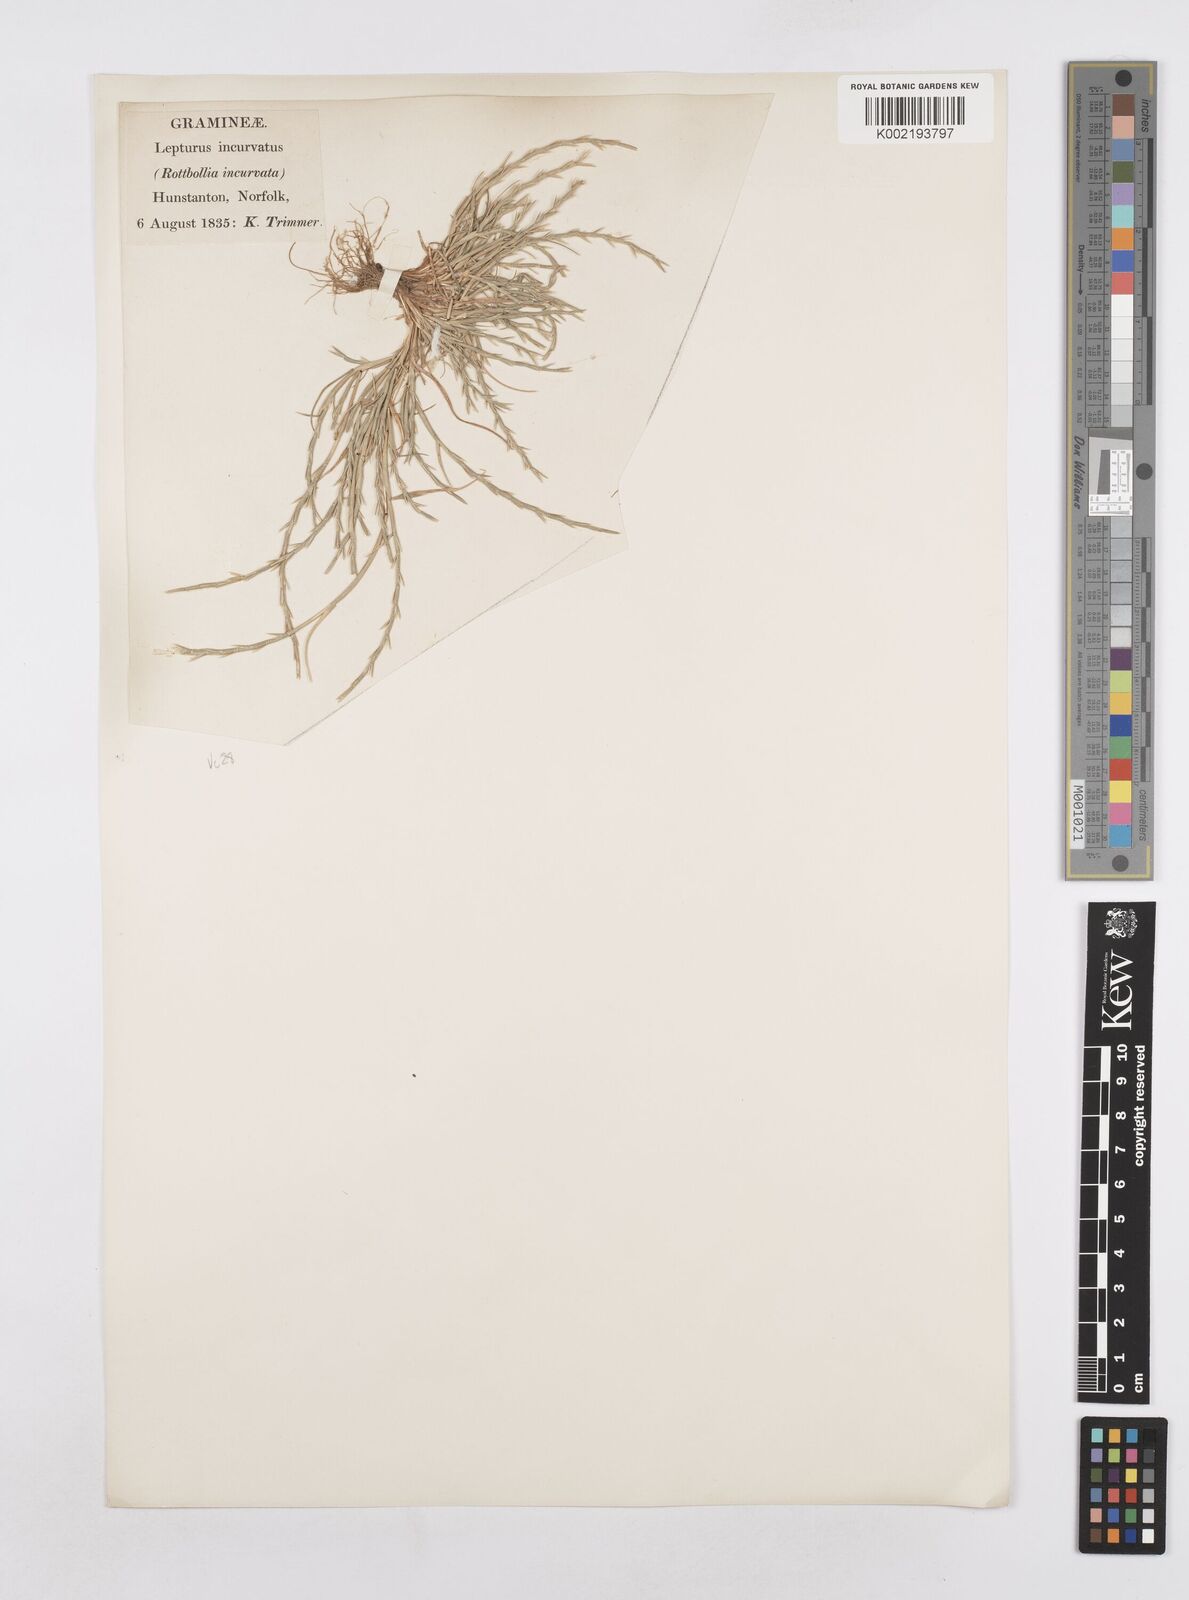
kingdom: Plantae
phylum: Tracheophyta
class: Liliopsida
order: Poales
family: Poaceae
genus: Parapholis
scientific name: Parapholis
